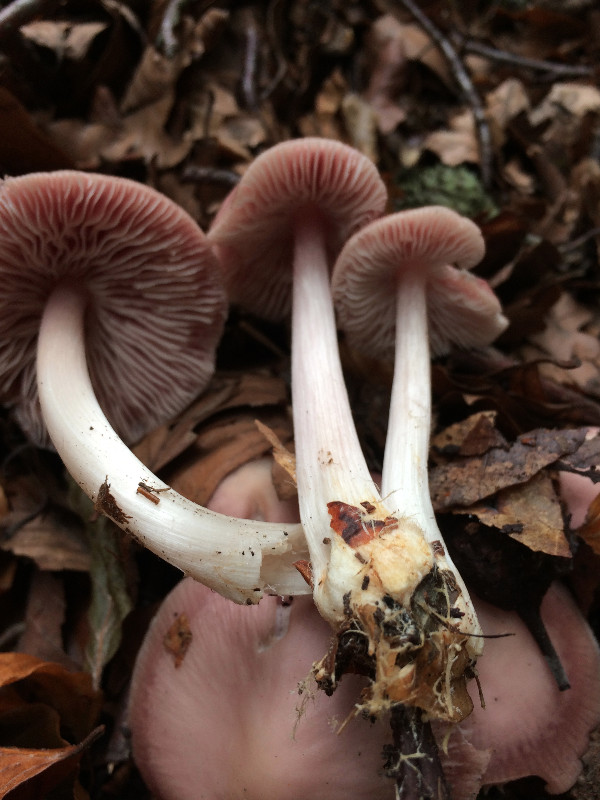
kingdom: Fungi
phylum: Basidiomycota
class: Agaricomycetes
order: Agaricales
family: Mycenaceae
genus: Mycena
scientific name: Mycena rosea
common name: rosa huesvamp
